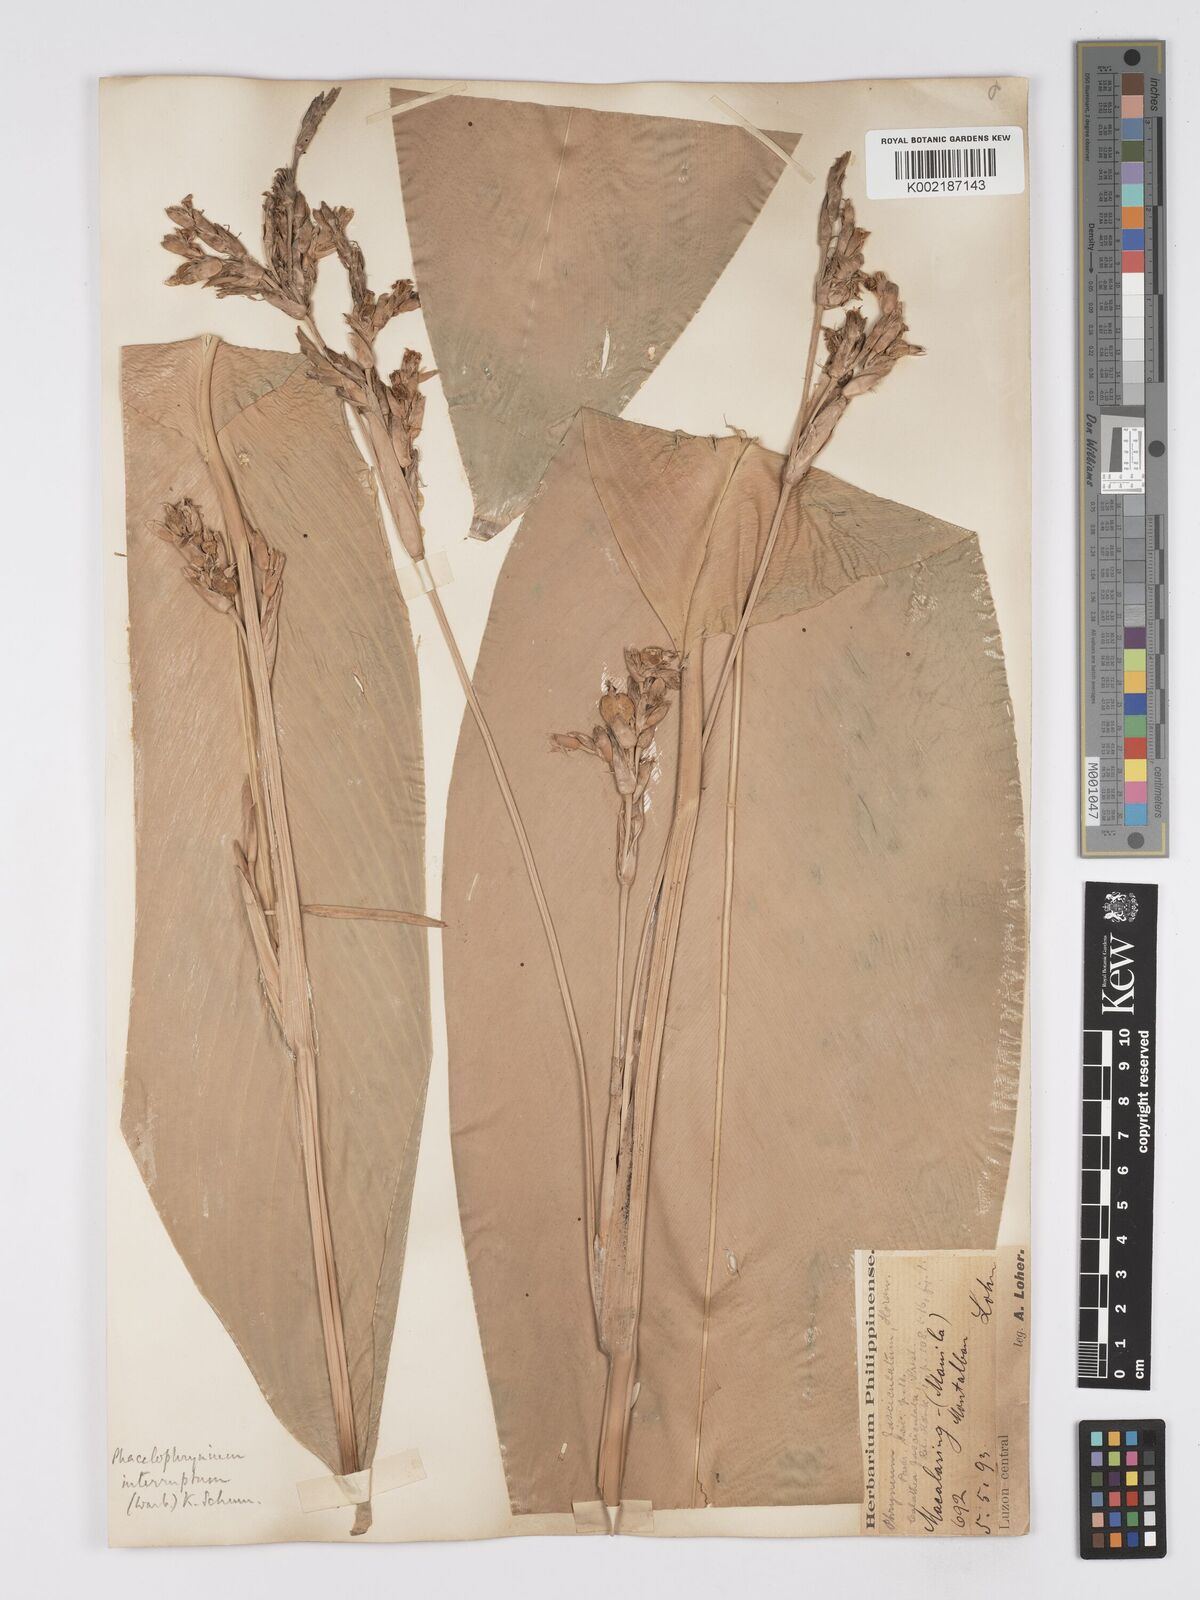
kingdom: Plantae
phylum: Tracheophyta
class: Liliopsida
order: Zingiberales
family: Marantaceae
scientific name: Marantaceae
